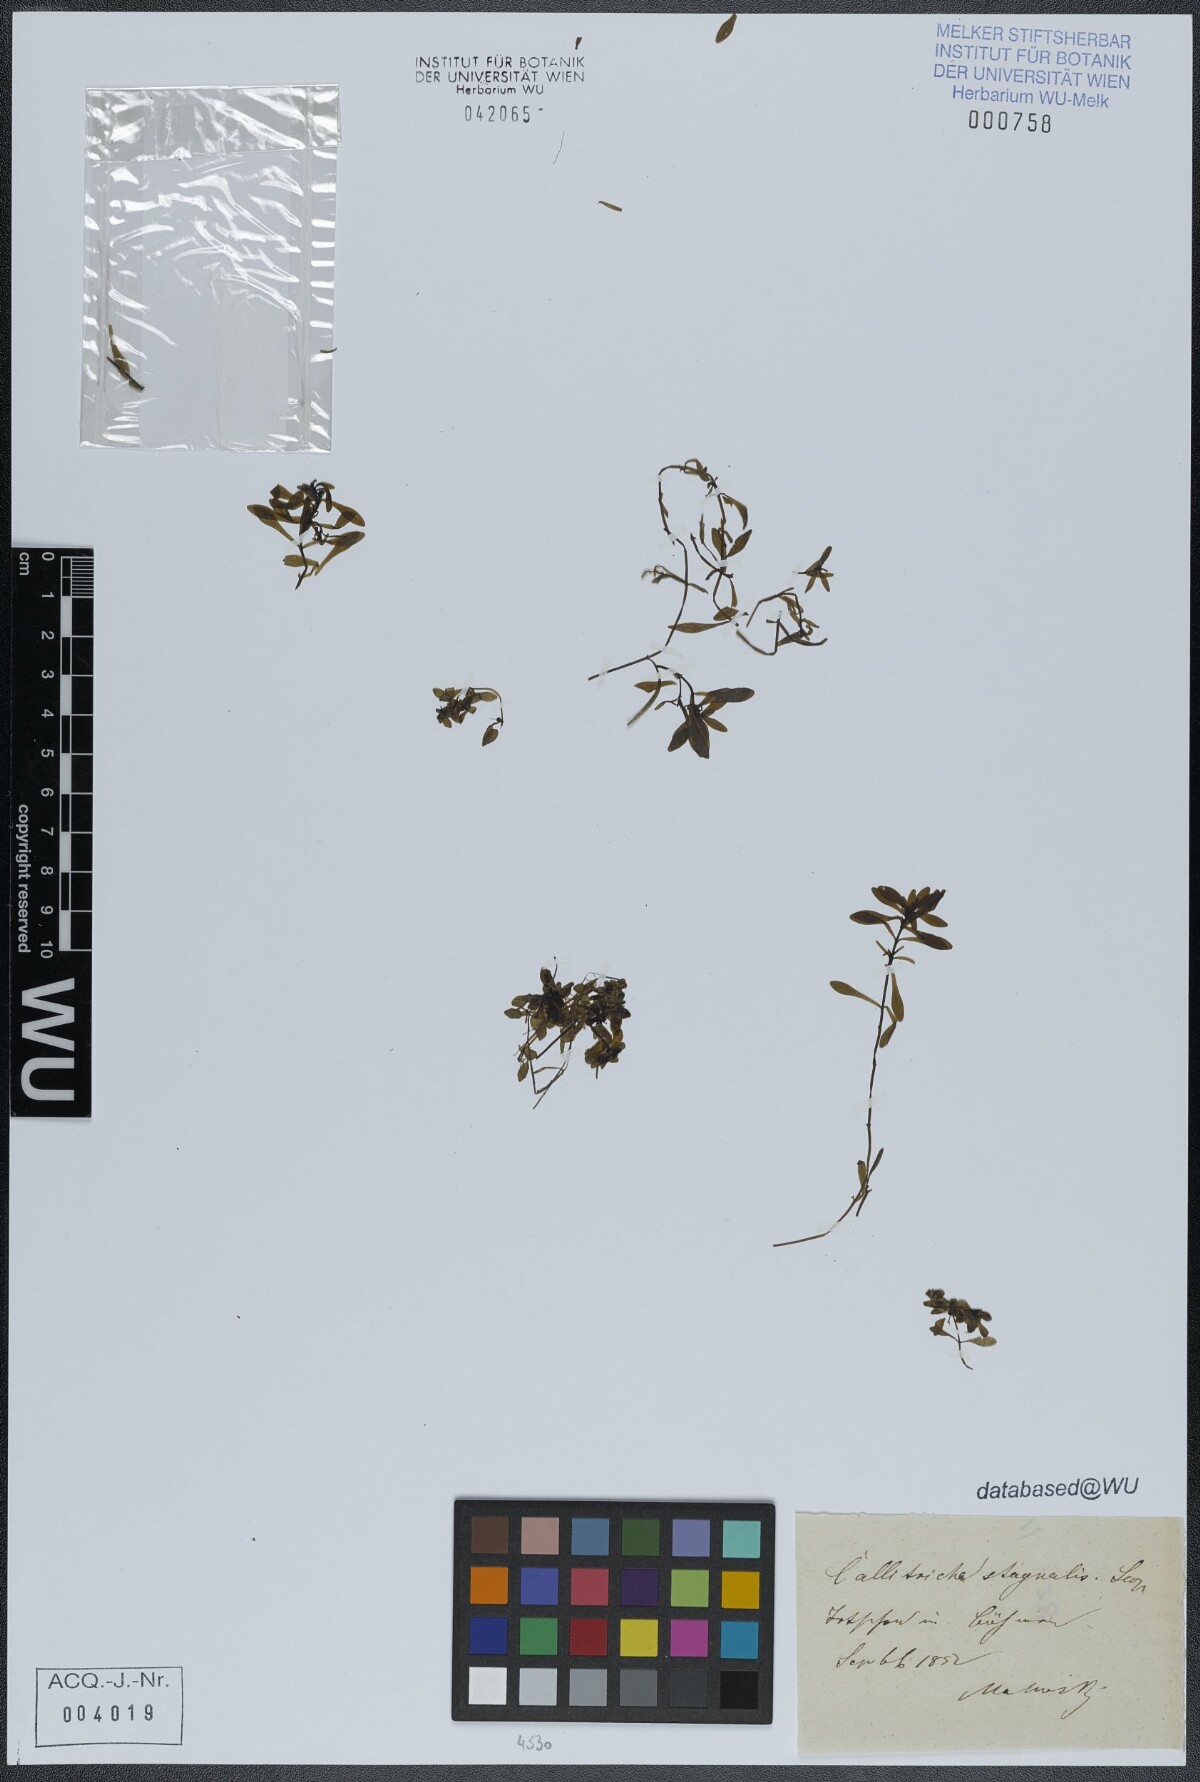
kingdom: Plantae
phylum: Tracheophyta
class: Magnoliopsida
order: Lamiales
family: Plantaginaceae
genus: Callitriche
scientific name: Callitriche stagnalis
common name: Common water-starwort
